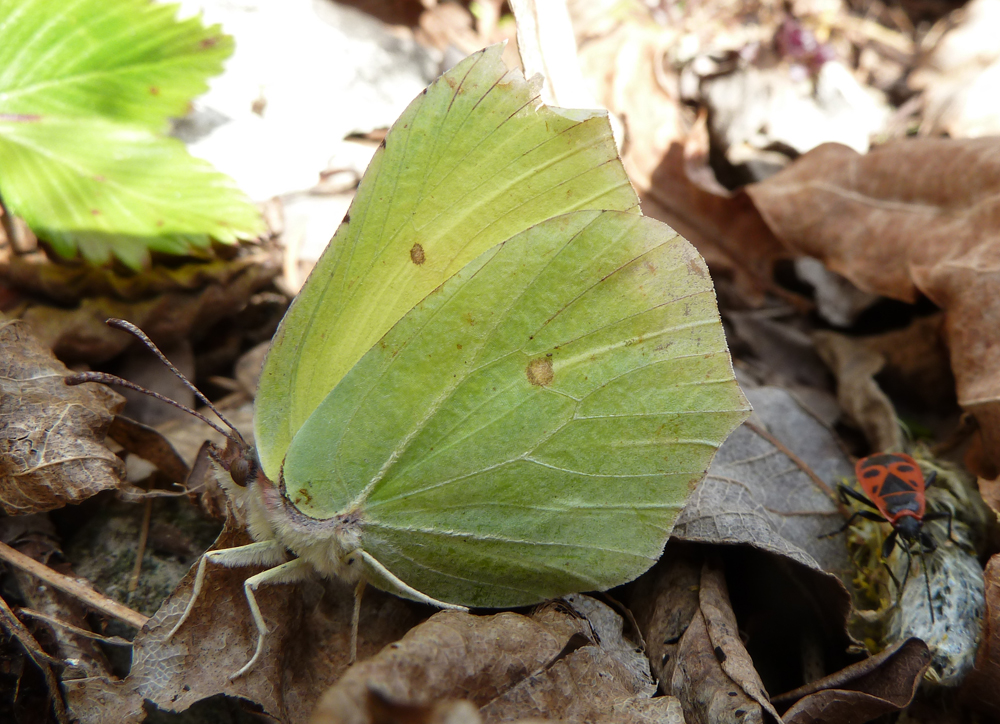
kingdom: Animalia
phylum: Arthropoda
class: Insecta
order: Lepidoptera
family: Pieridae
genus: Gonepteryx
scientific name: Gonepteryx rhamni
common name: Brimstone
